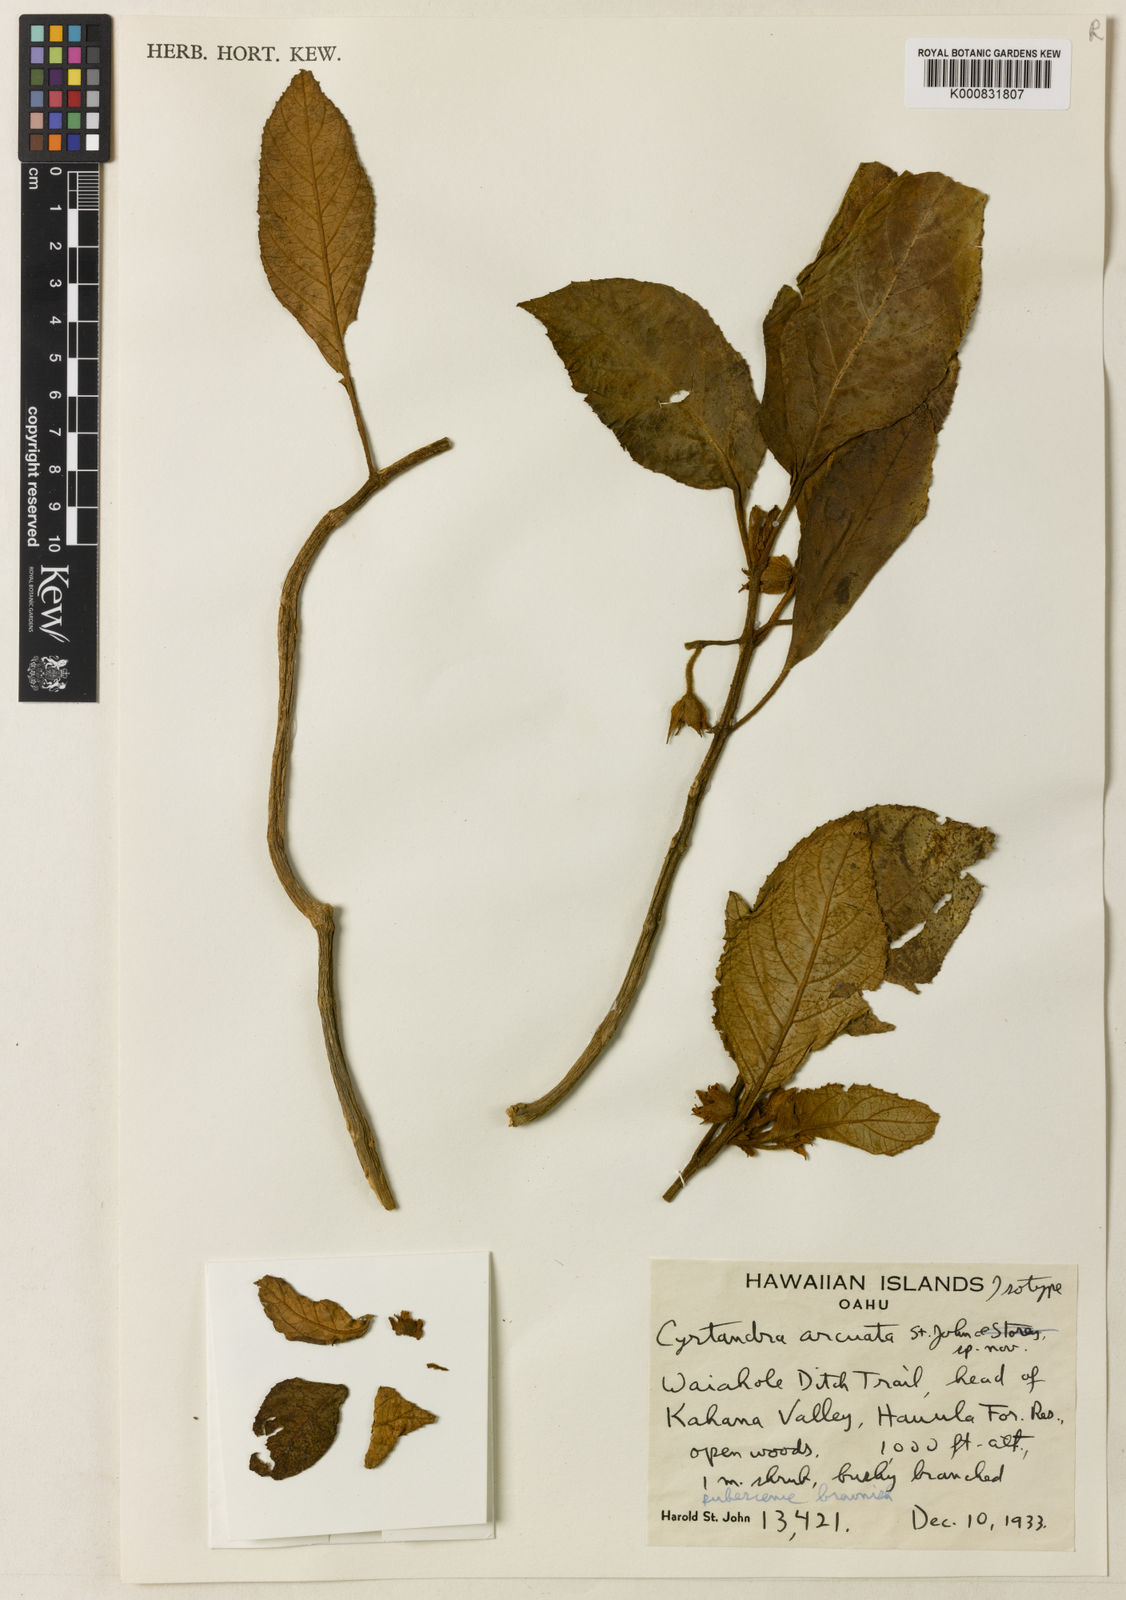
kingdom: Plantae
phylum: Tracheophyta
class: Magnoliopsida
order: Lamiales
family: Gesneriaceae
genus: Cyrtandra
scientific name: Cyrtandra kaalae
